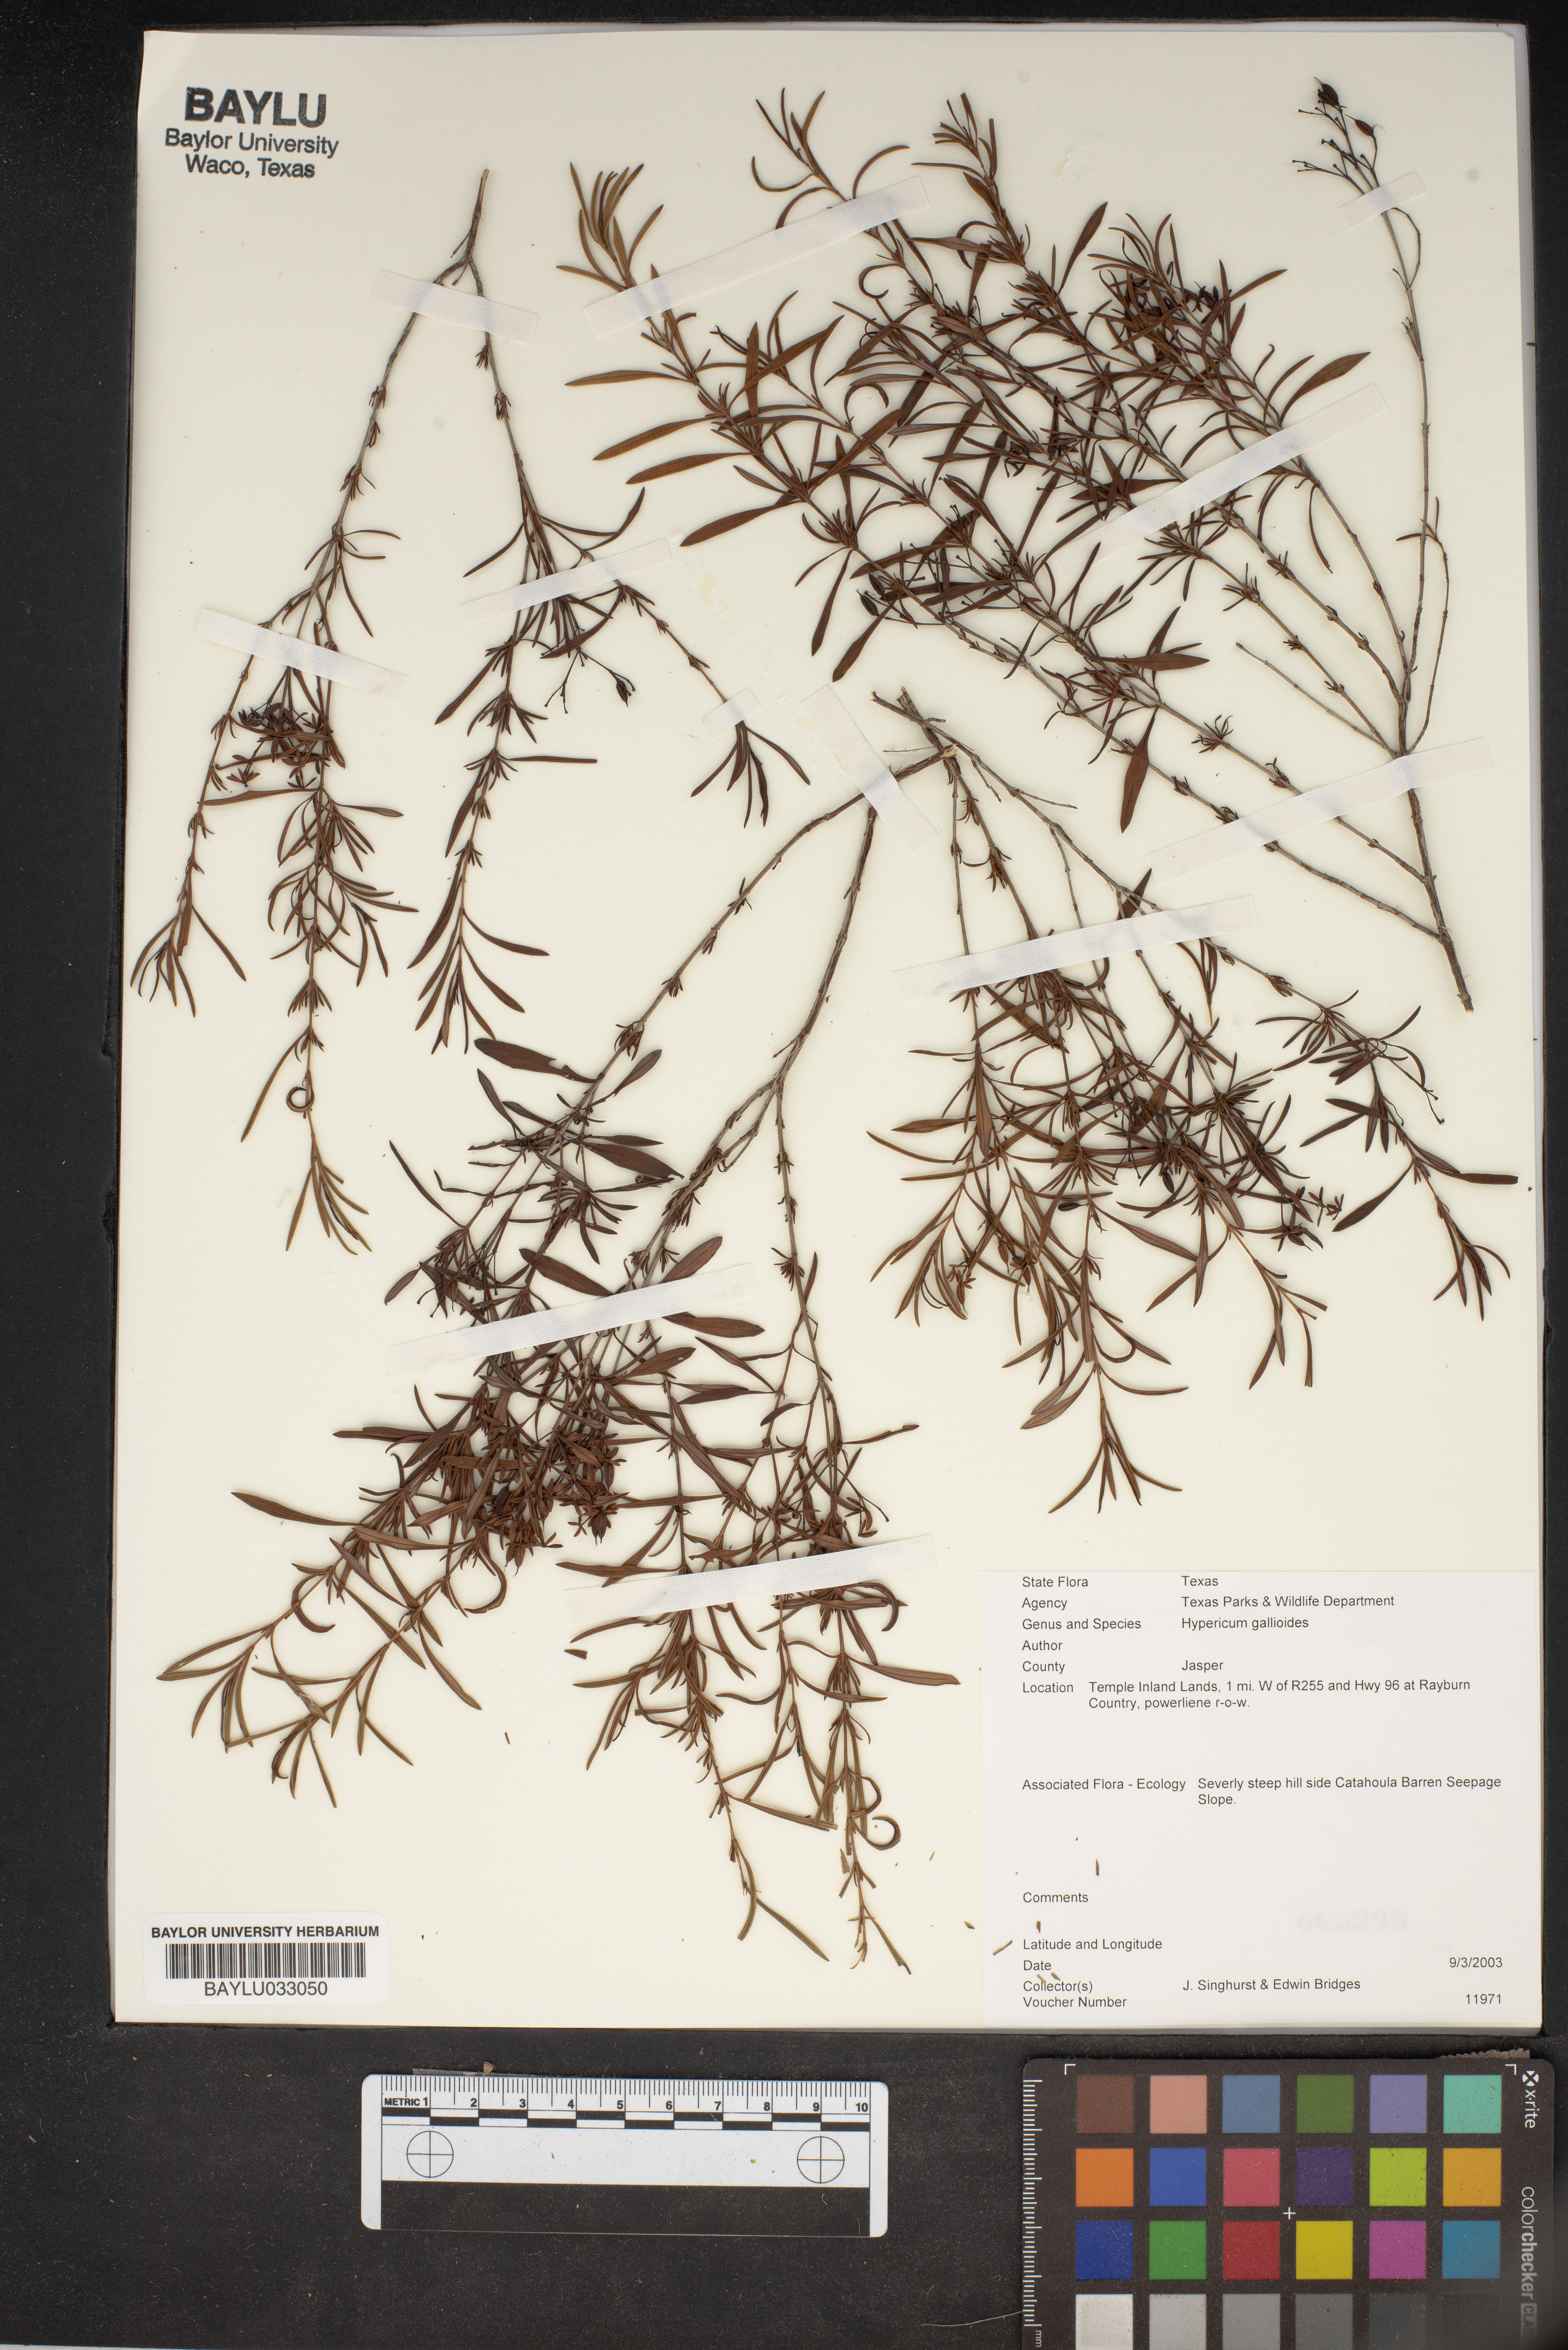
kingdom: Plantae
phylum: Tracheophyta
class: Magnoliopsida
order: Malpighiales
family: Hypericaceae
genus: Hypericum
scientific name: Hypericum galioides
